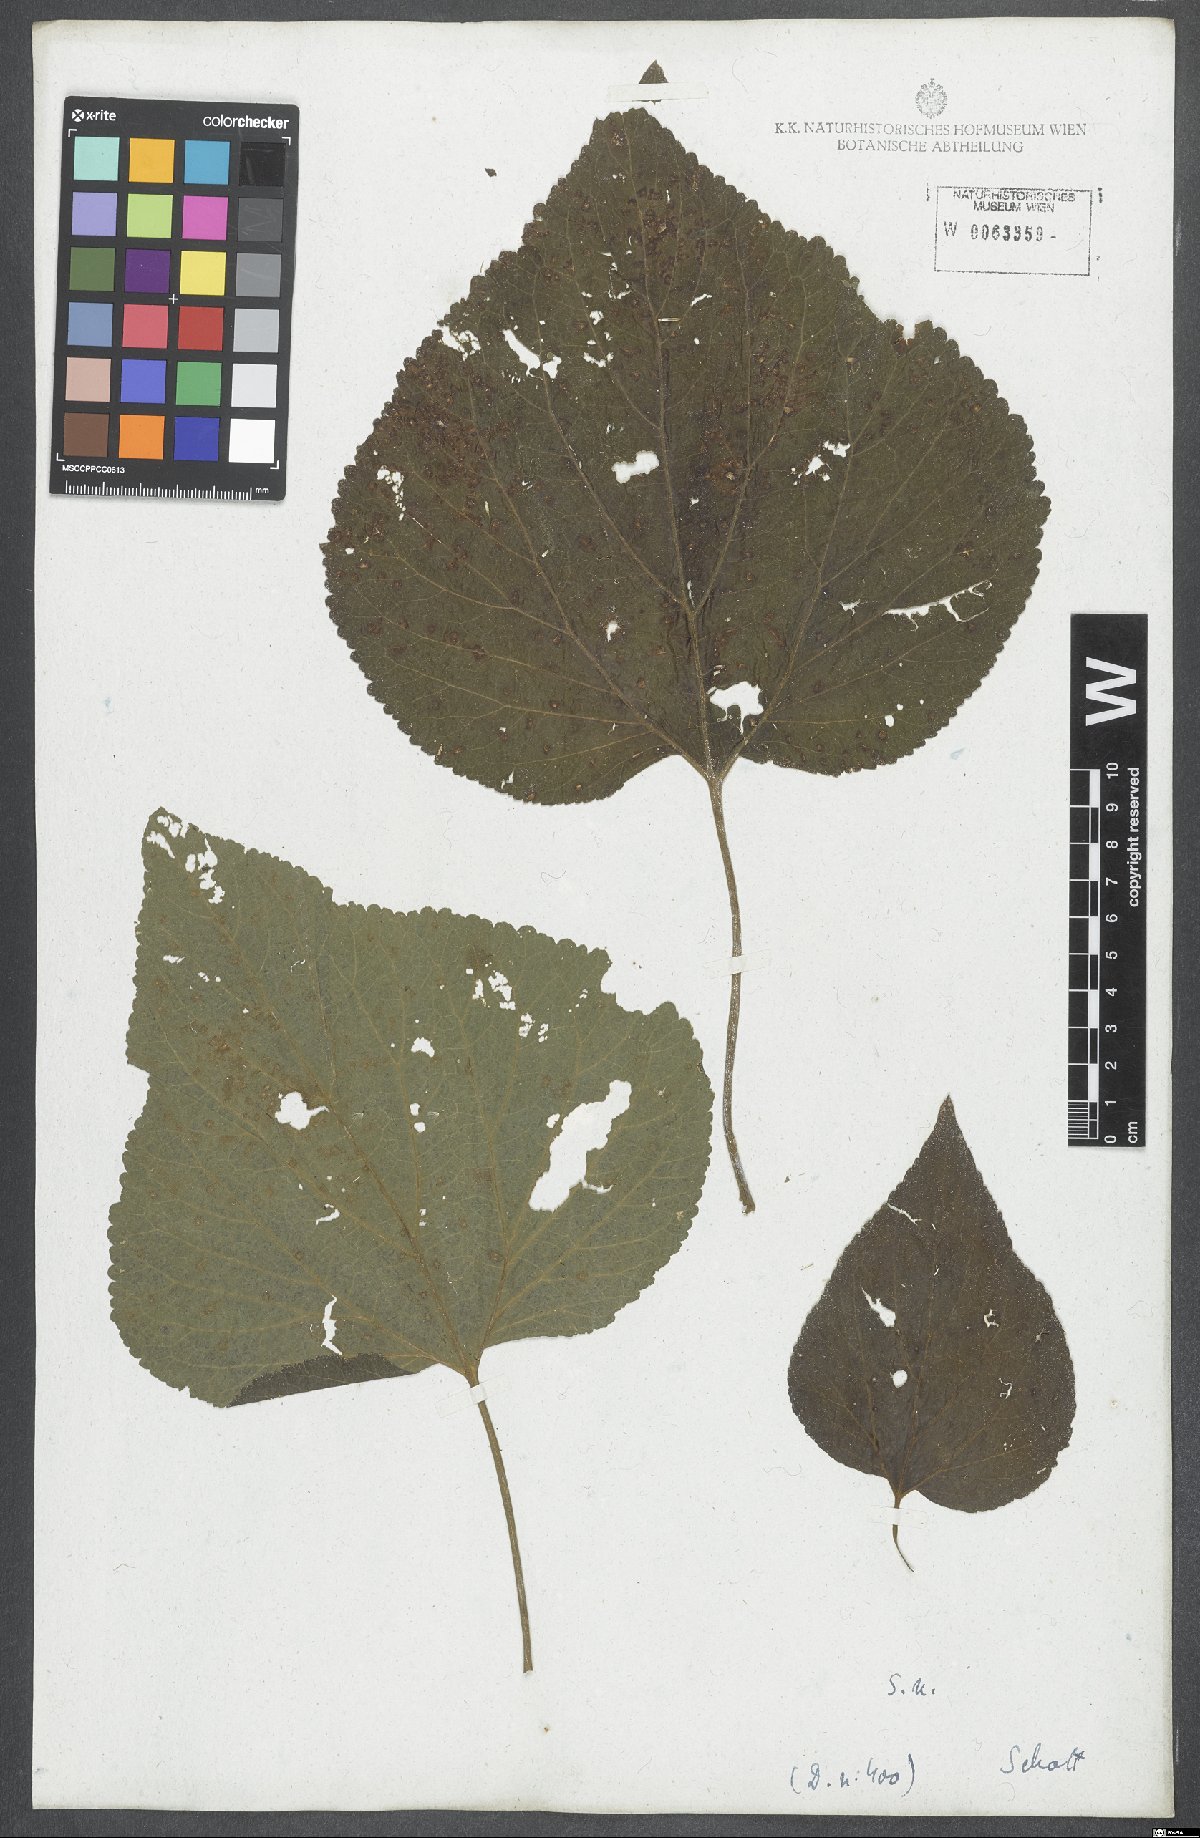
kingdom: Plantae
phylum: Tracheophyta
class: Magnoliopsida
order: Asterales
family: Asteraceae
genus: Hebeclinium
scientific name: Hebeclinium macrophyllum
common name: Largeleaf thoroughwort
